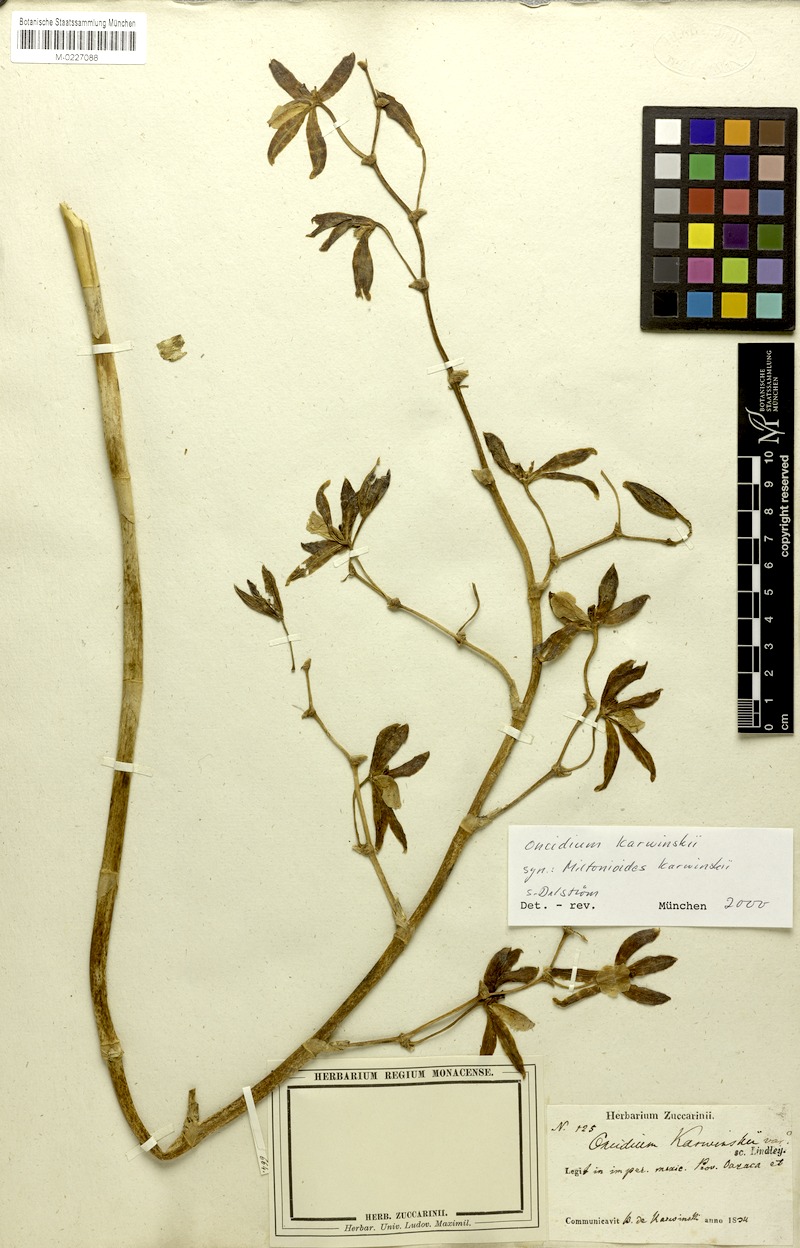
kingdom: Plantae
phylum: Tracheophyta
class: Liliopsida
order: Asparagales
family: Orchidaceae
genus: Oncidium
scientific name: Oncidium karwinskii
